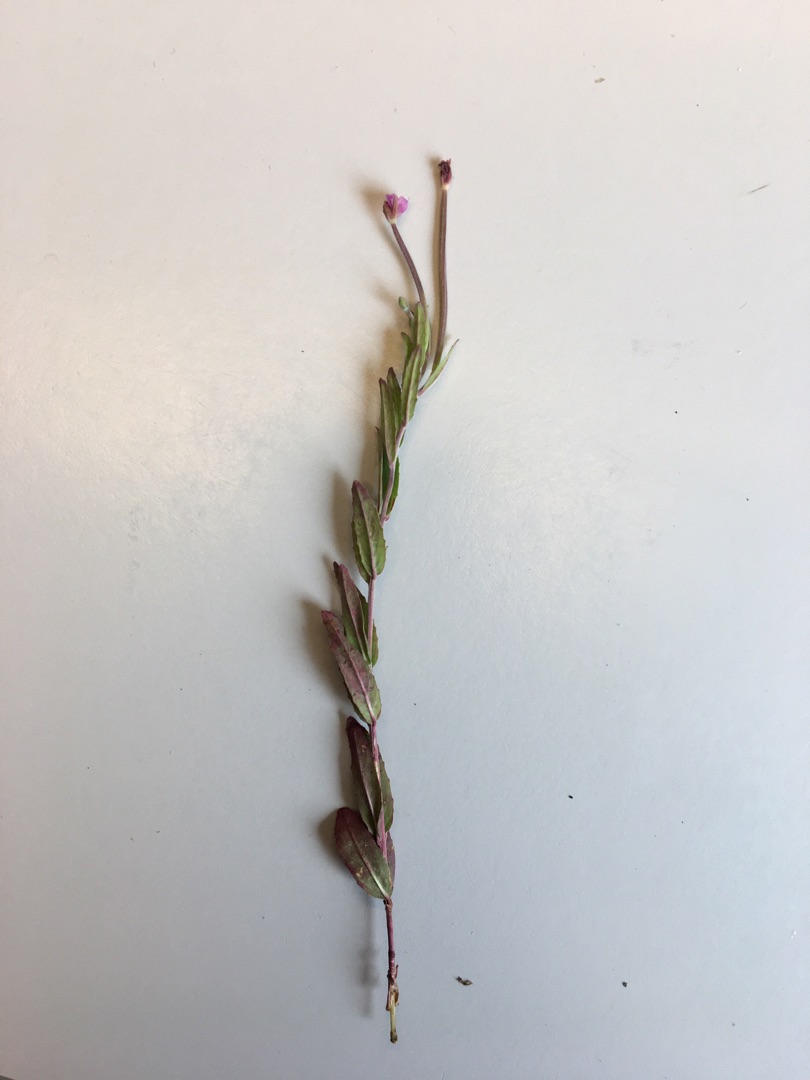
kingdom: Plantae
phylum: Tracheophyta
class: Magnoliopsida
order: Myrtales
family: Onagraceae
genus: Epilobium
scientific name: Epilobium
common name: Dueurtslægten
